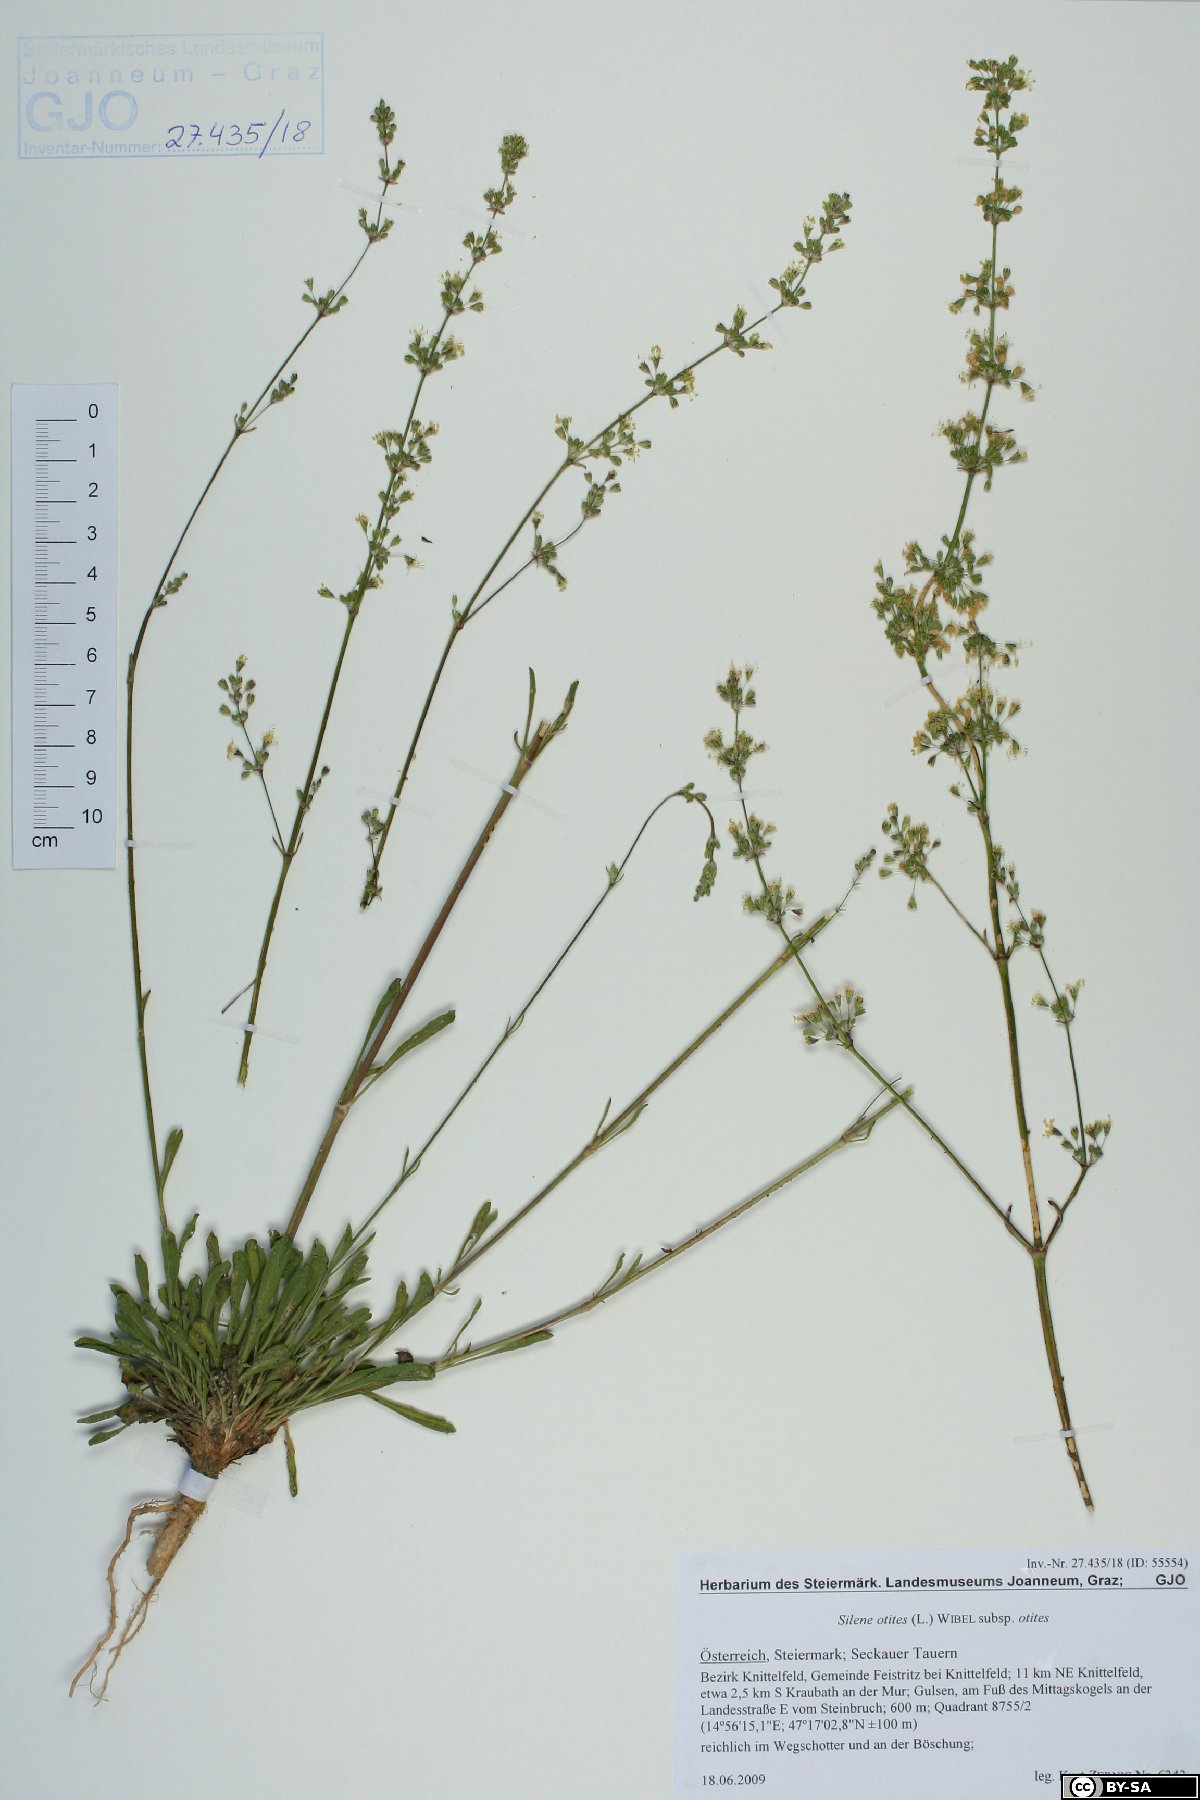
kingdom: Plantae
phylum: Tracheophyta
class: Magnoliopsida
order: Caryophyllales
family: Caryophyllaceae
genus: Silene
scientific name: Silene otites
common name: Spanish catchfly
